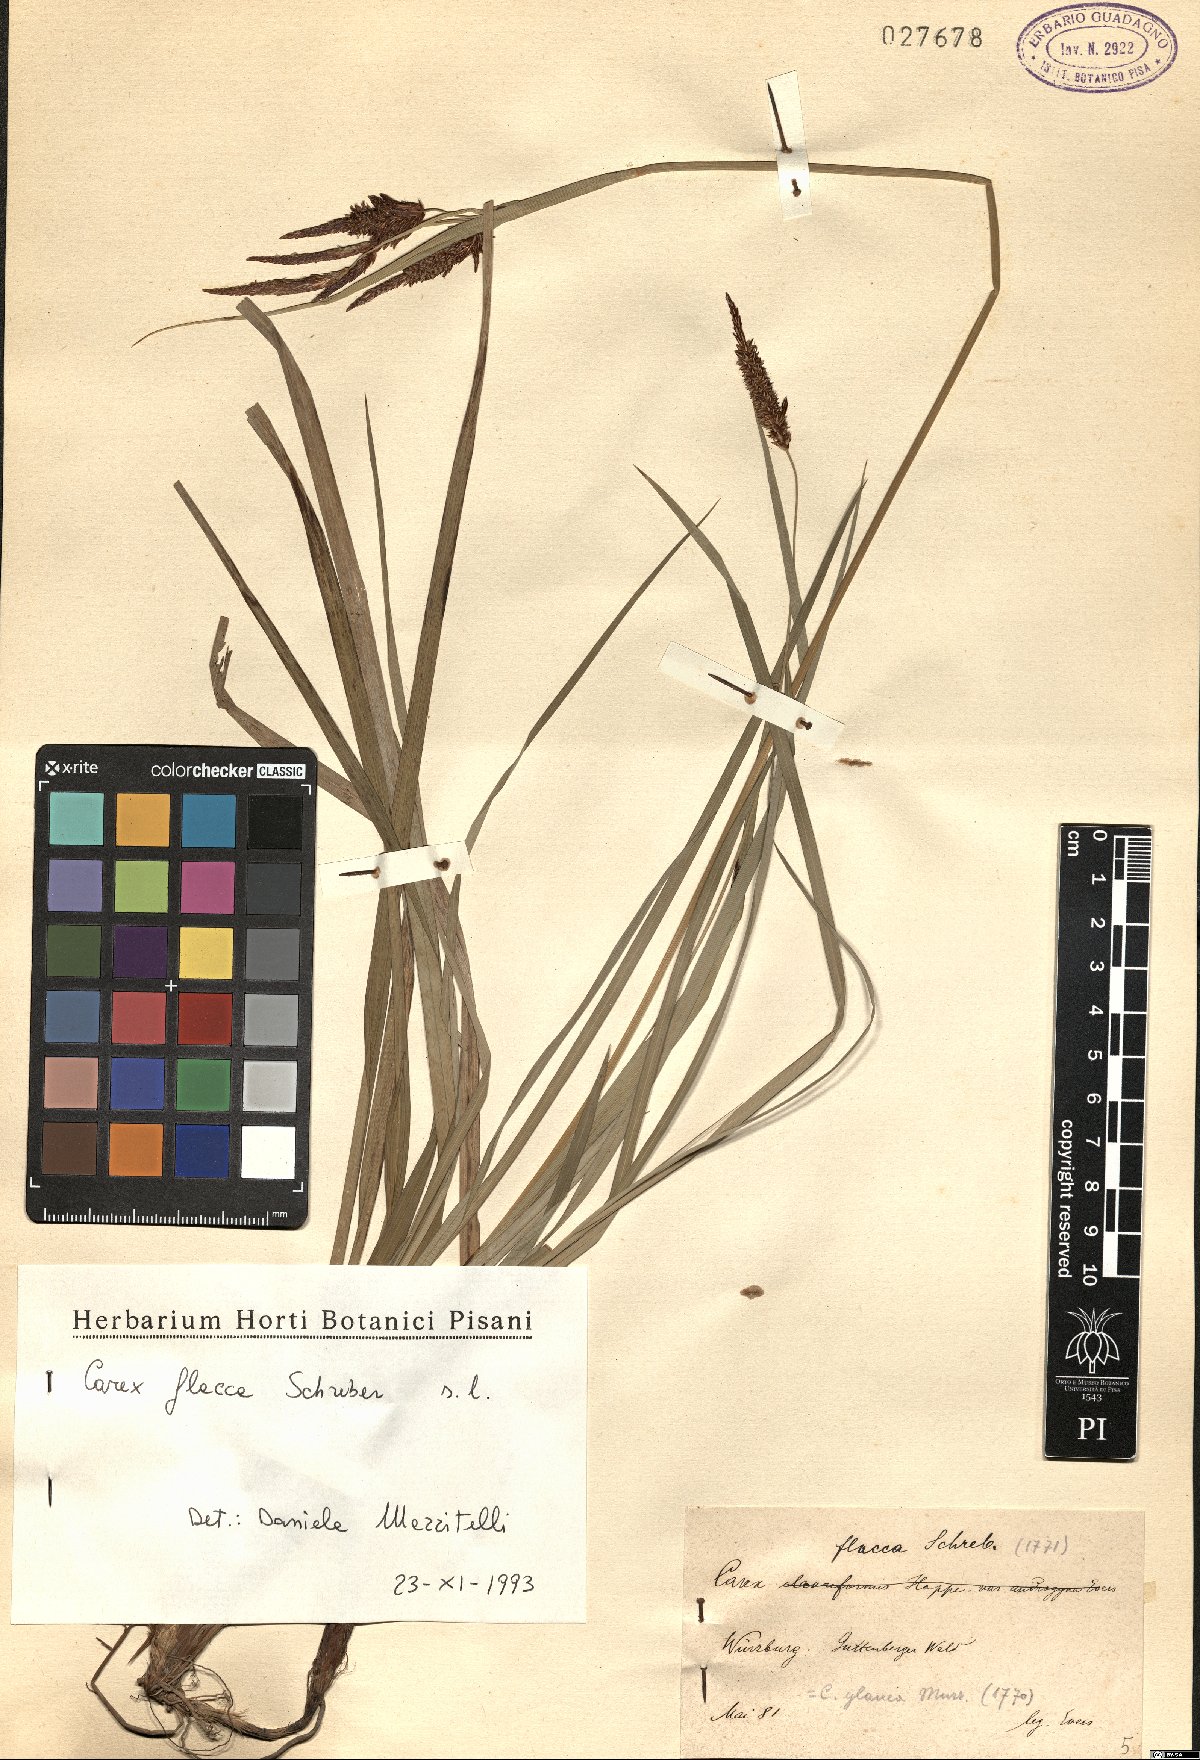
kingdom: Plantae
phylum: Tracheophyta
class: Liliopsida
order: Poales
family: Cyperaceae
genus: Carex
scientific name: Carex flacca
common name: Glaucous sedge
